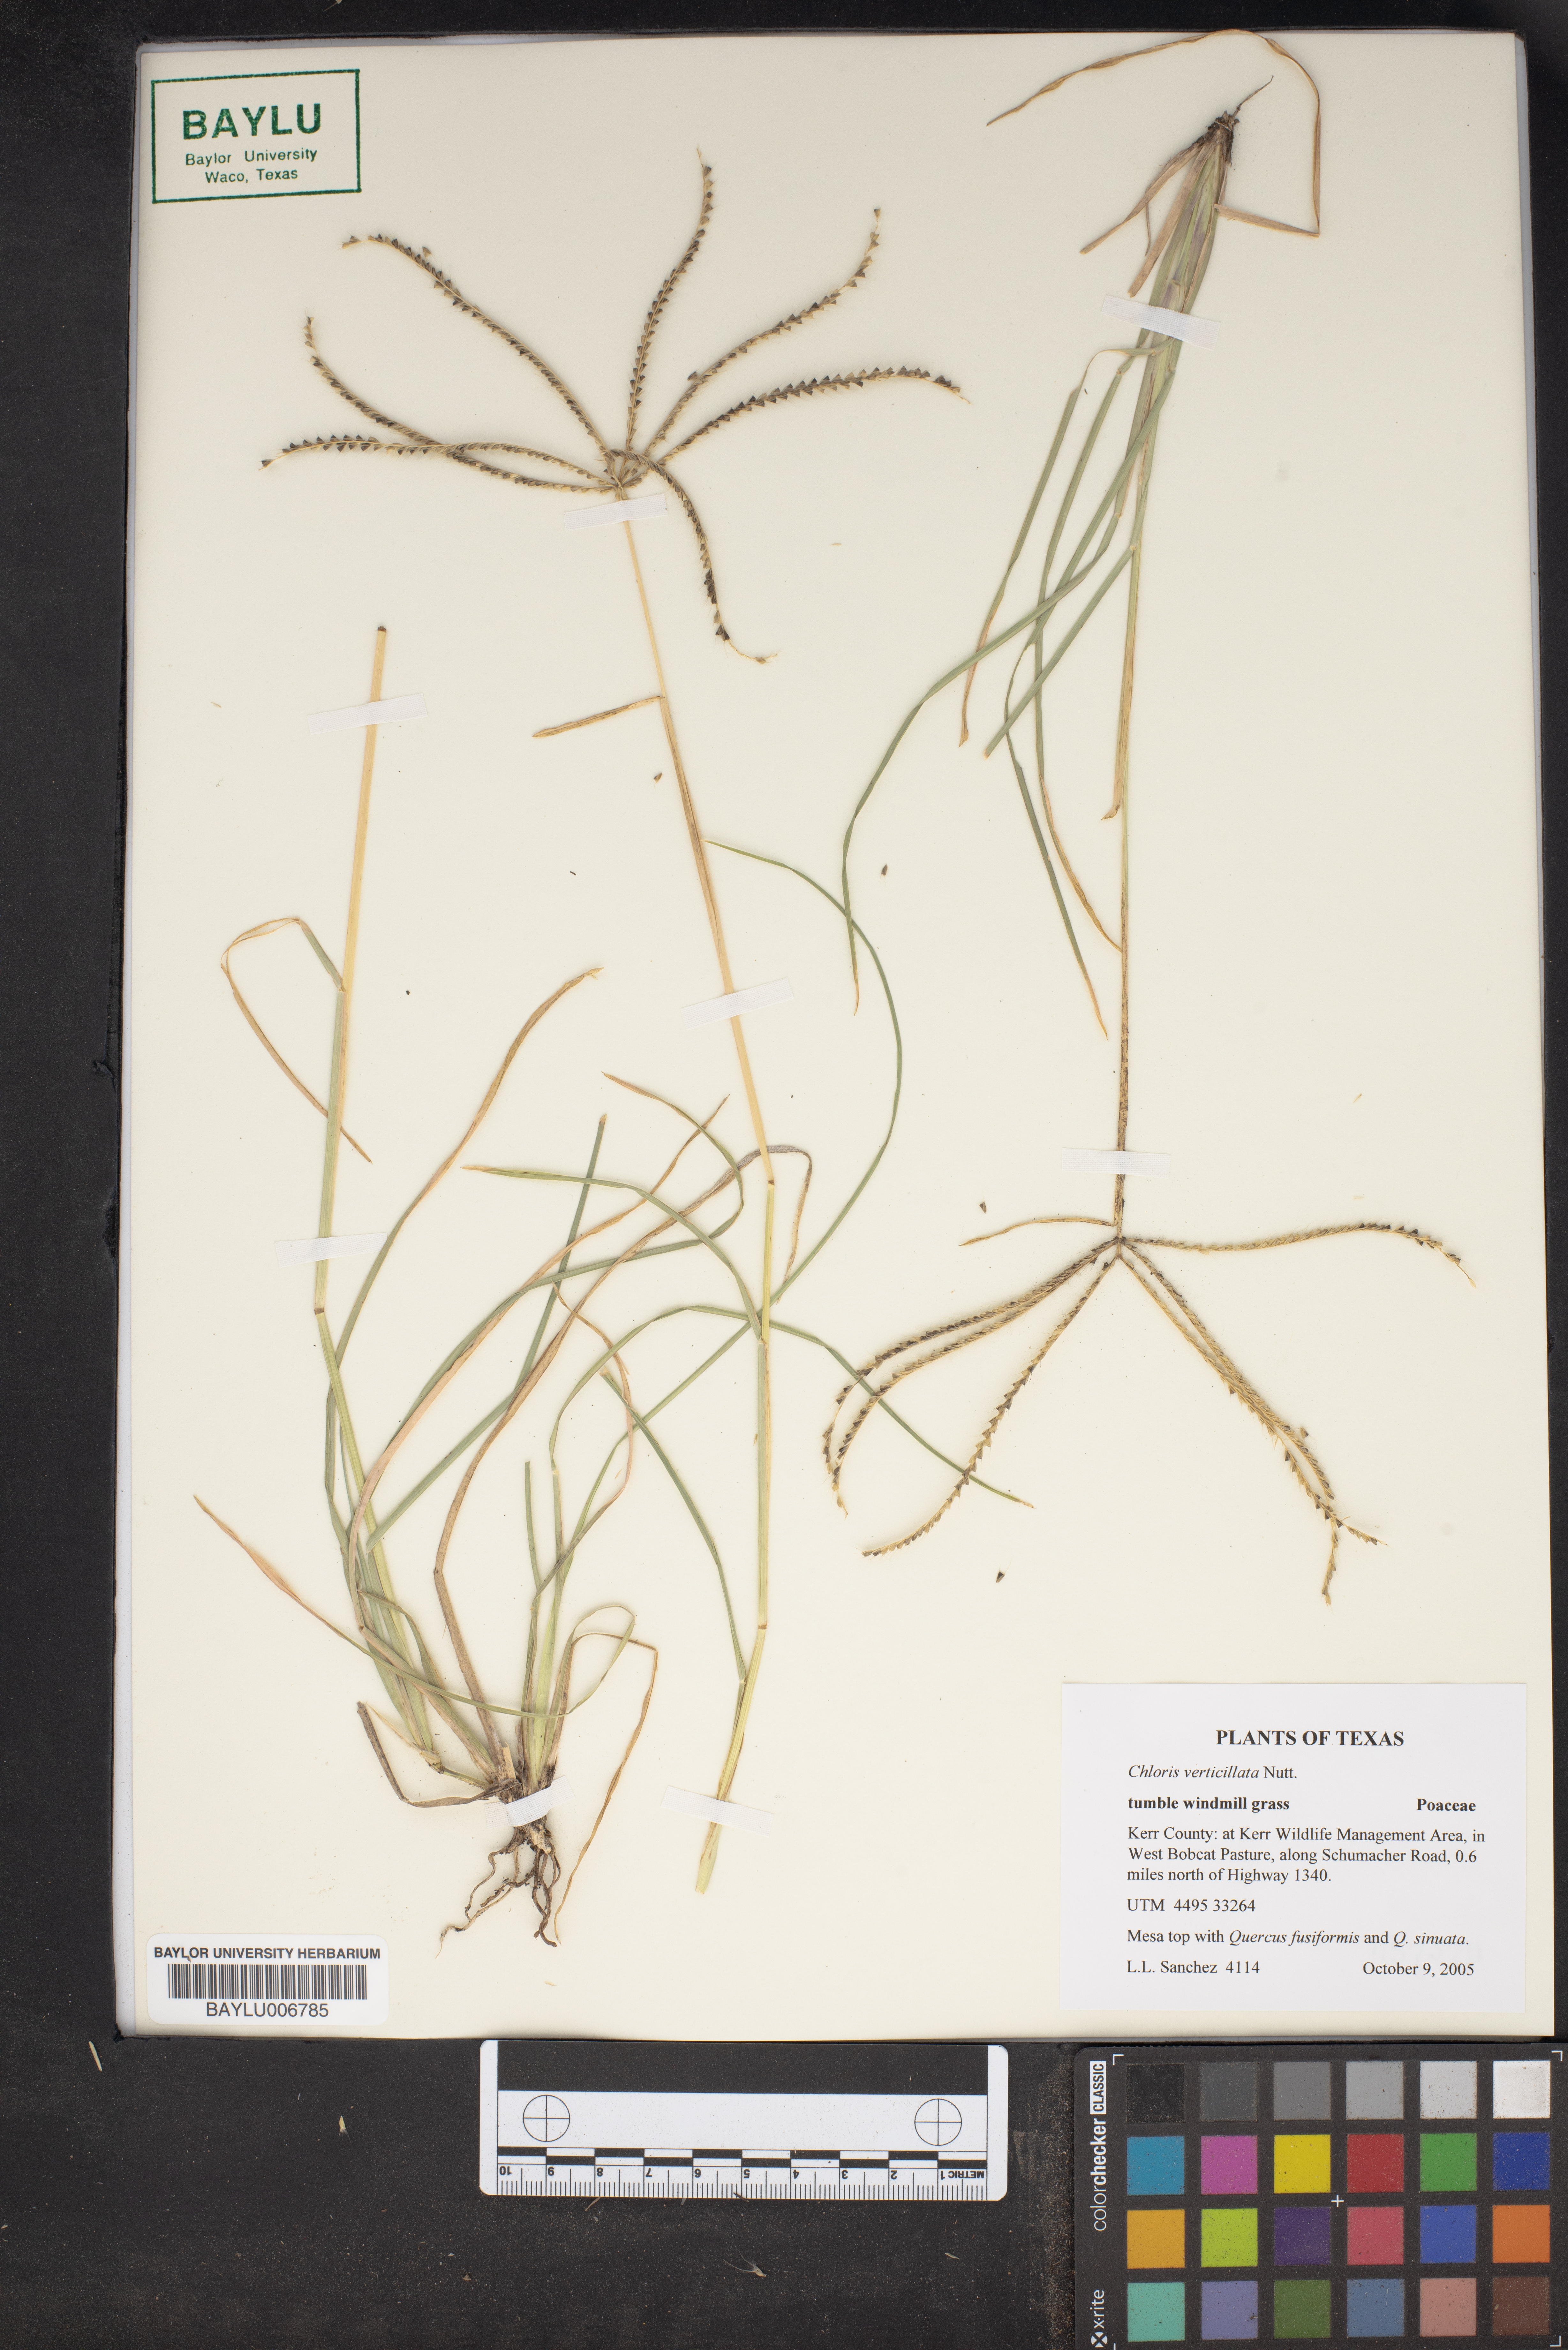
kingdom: Plantae
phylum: Tracheophyta
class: Liliopsida
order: Poales
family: Poaceae
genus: Chloris
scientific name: Chloris verticillata
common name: Tumble windmill grass
